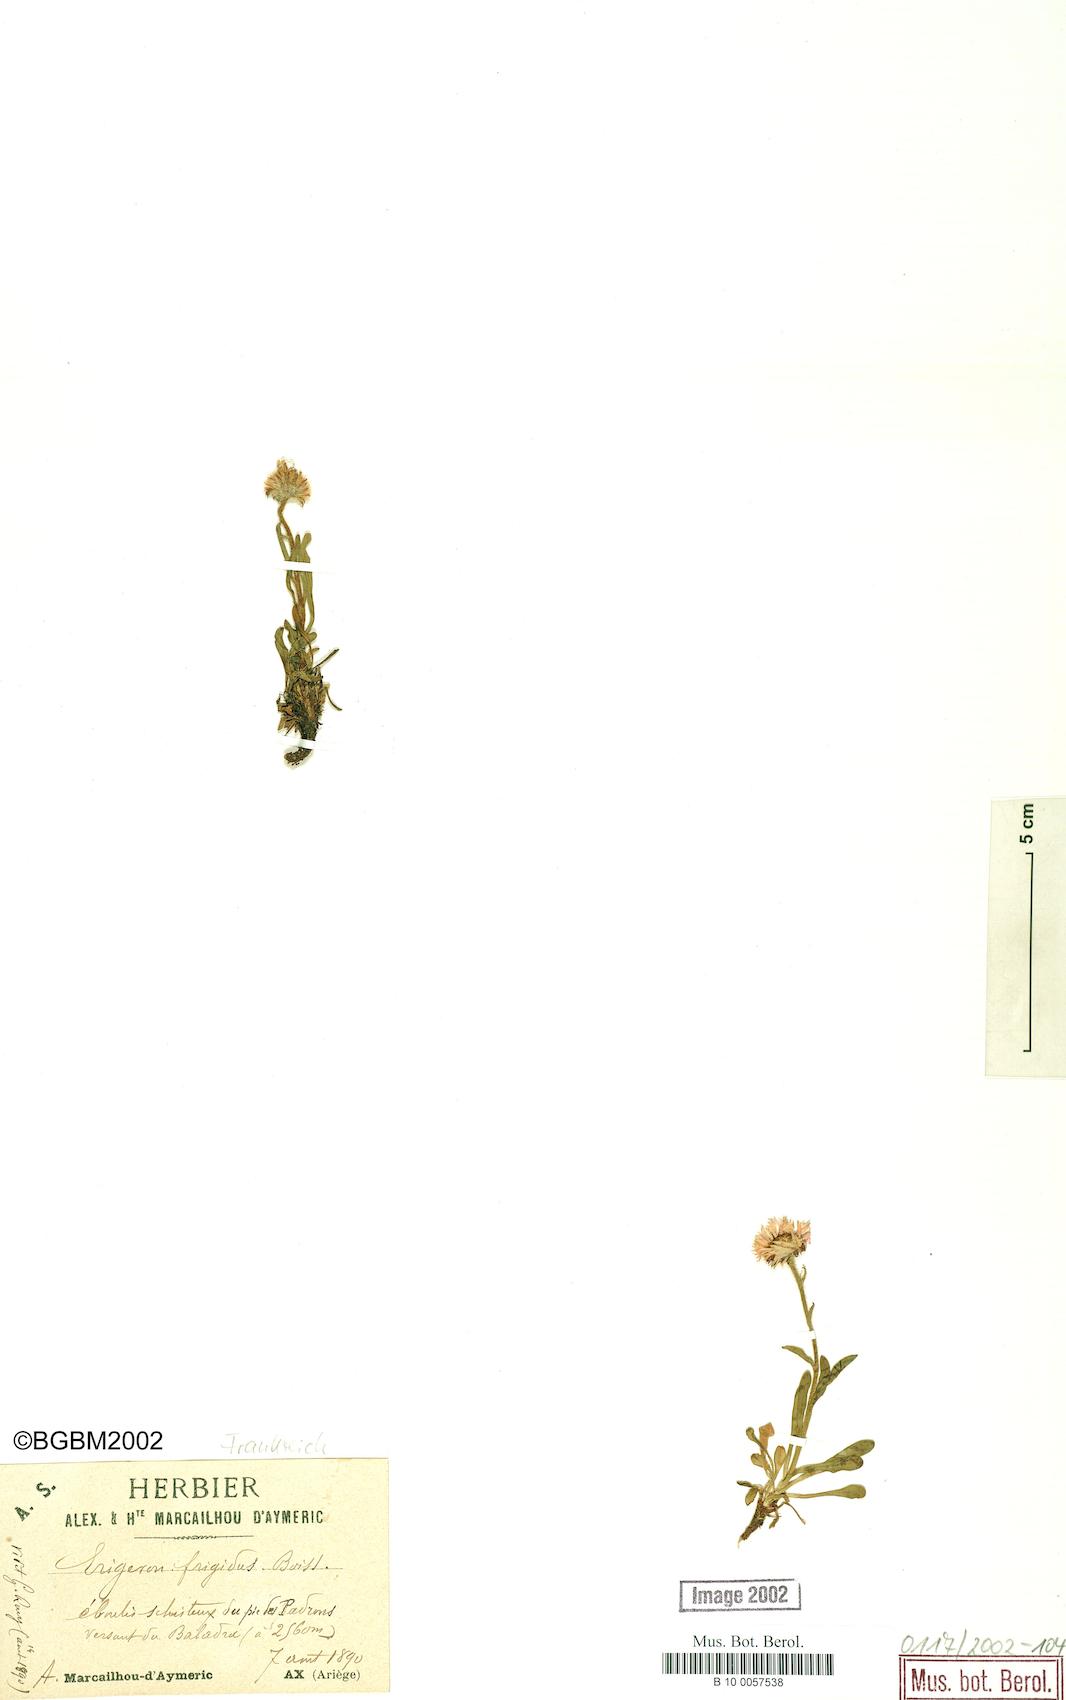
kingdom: Plantae
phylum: Tracheophyta
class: Magnoliopsida
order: Asterales
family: Asteraceae
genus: Erigeron
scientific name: Erigeron aragonensis
